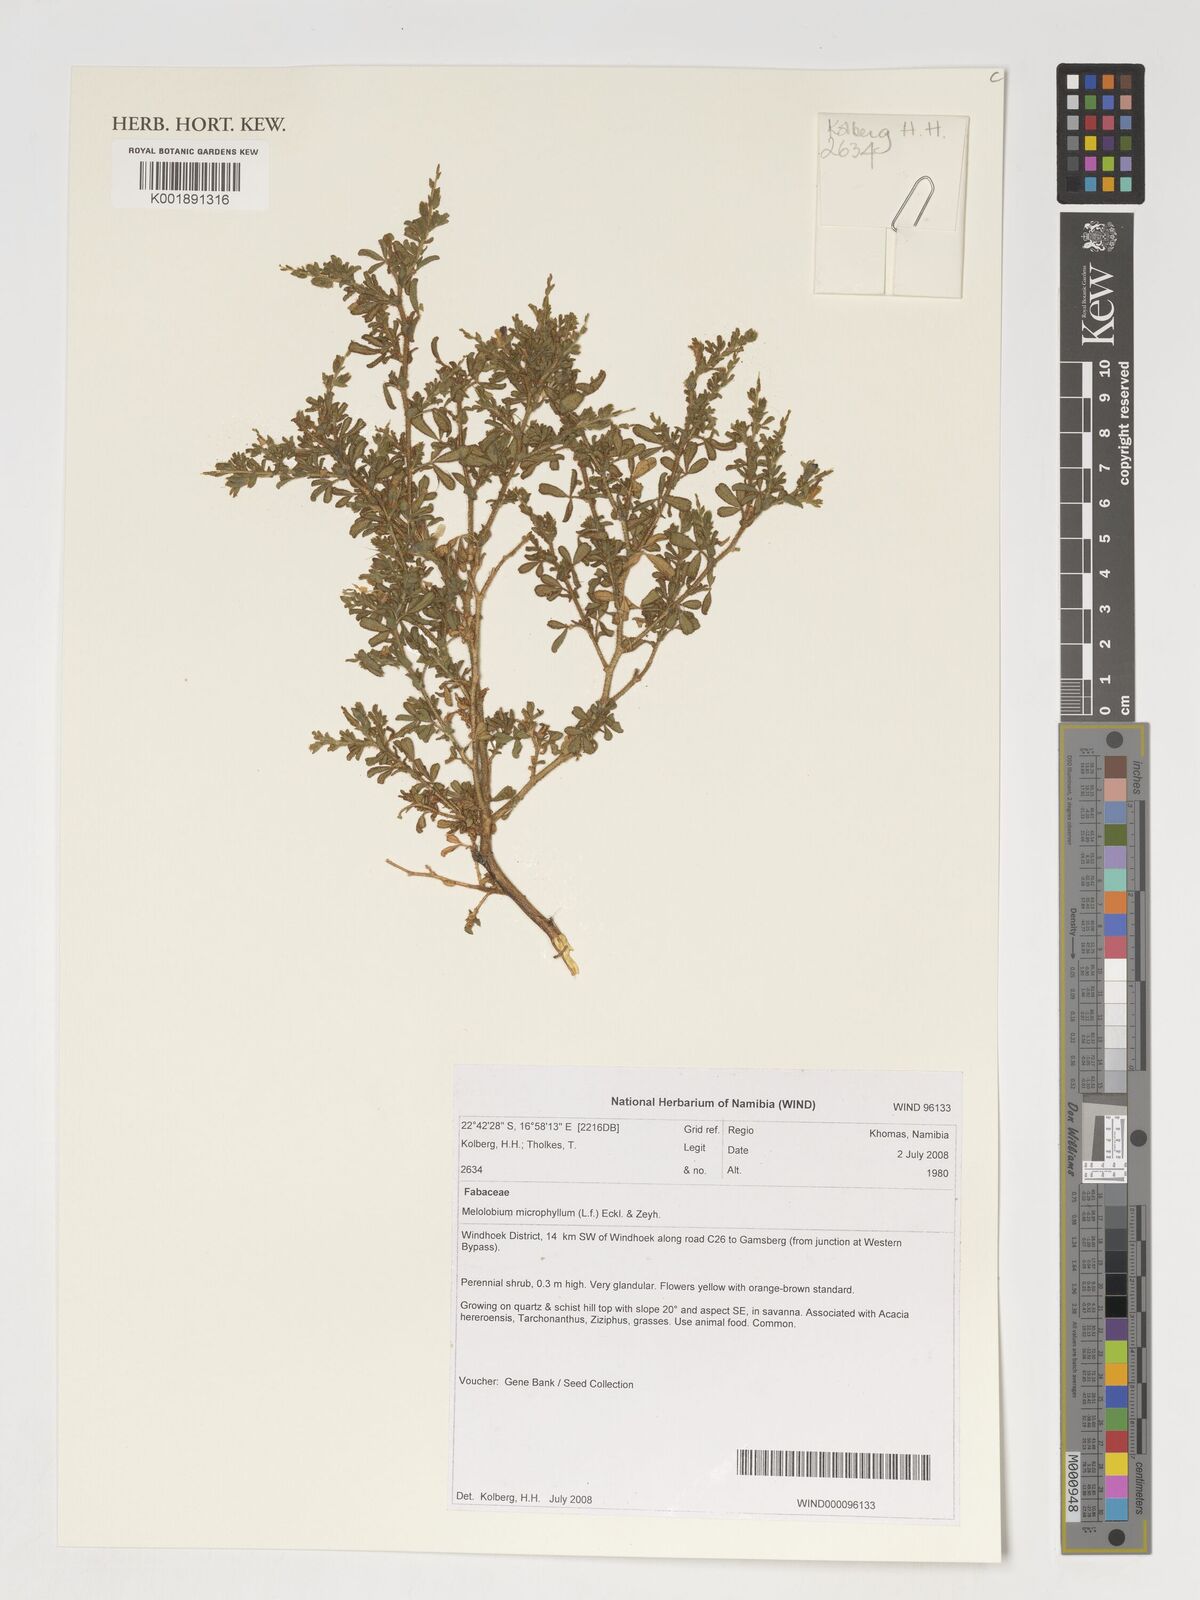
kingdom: Plantae
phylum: Tracheophyta
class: Magnoliopsida
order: Fabales
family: Fabaceae
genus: Melolobium
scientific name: Melolobium microphyllum
